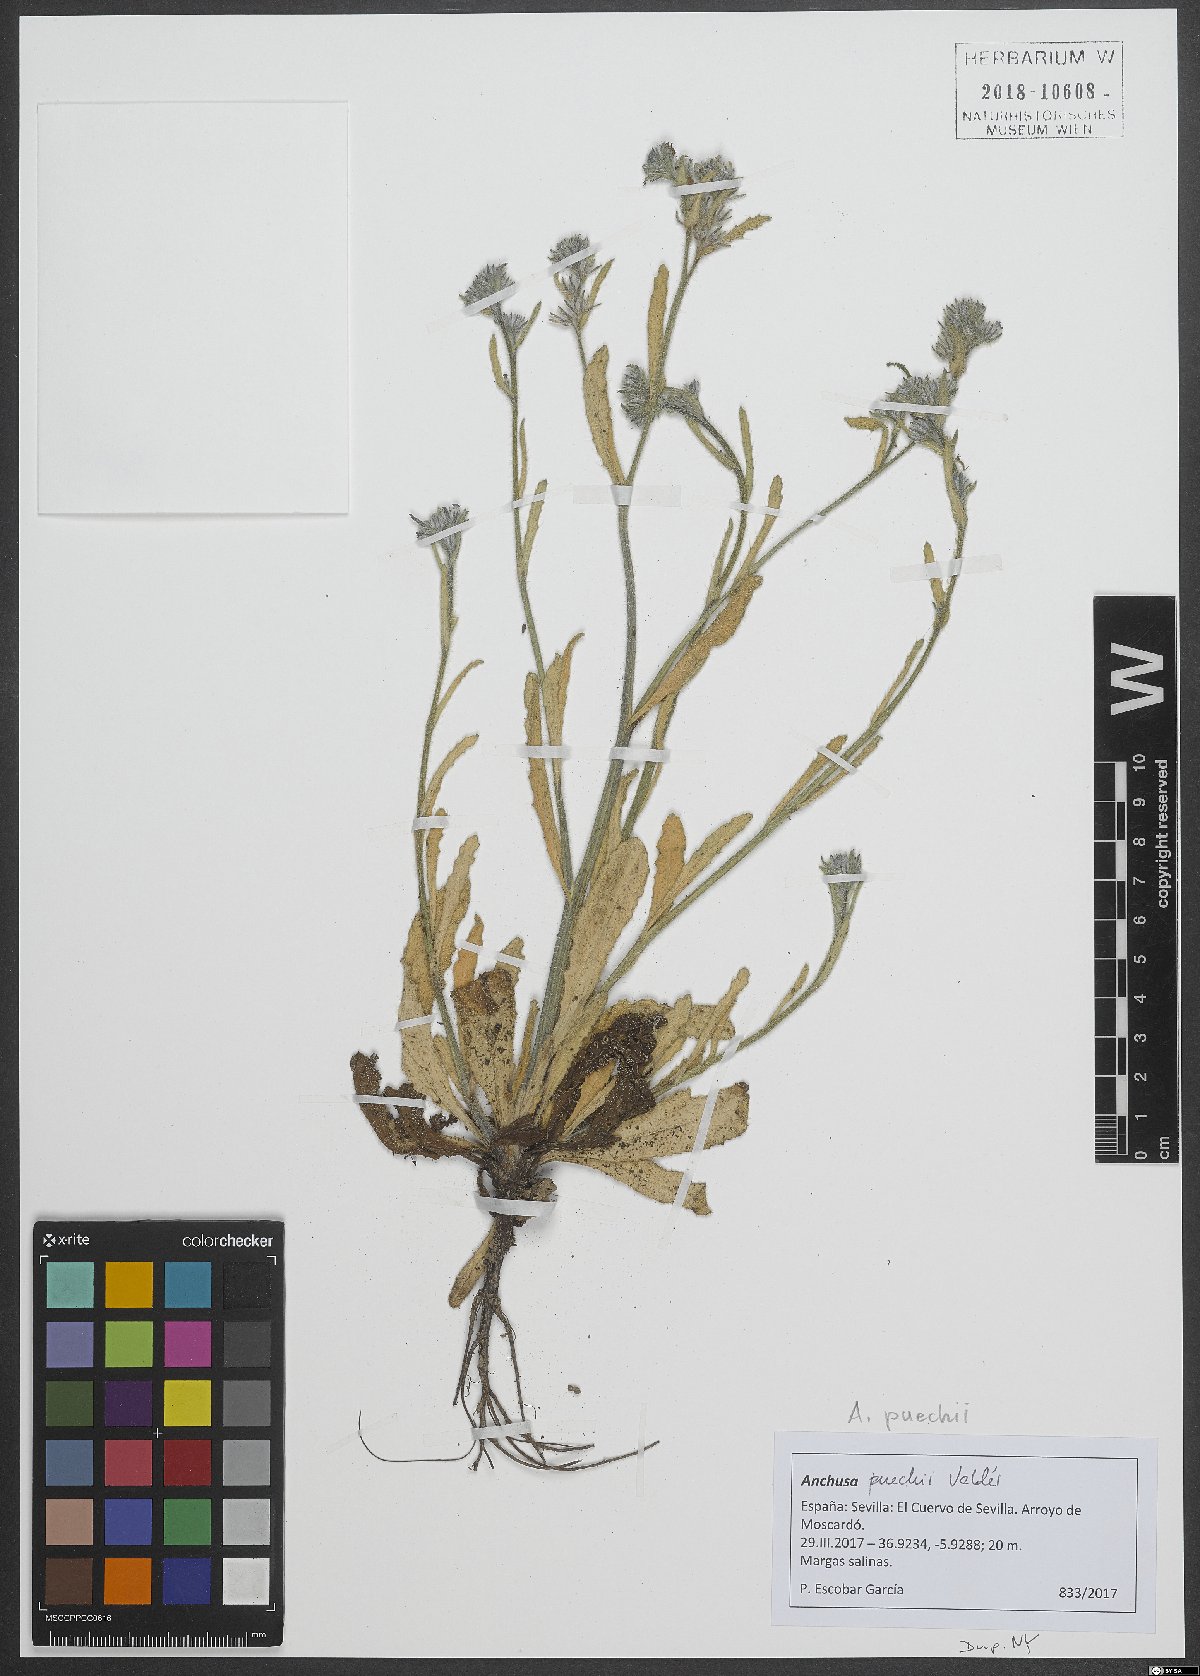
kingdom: Plantae
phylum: Tracheophyta
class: Magnoliopsida
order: Boraginales
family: Boraginaceae
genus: Anchusa
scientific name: Anchusa puechii
